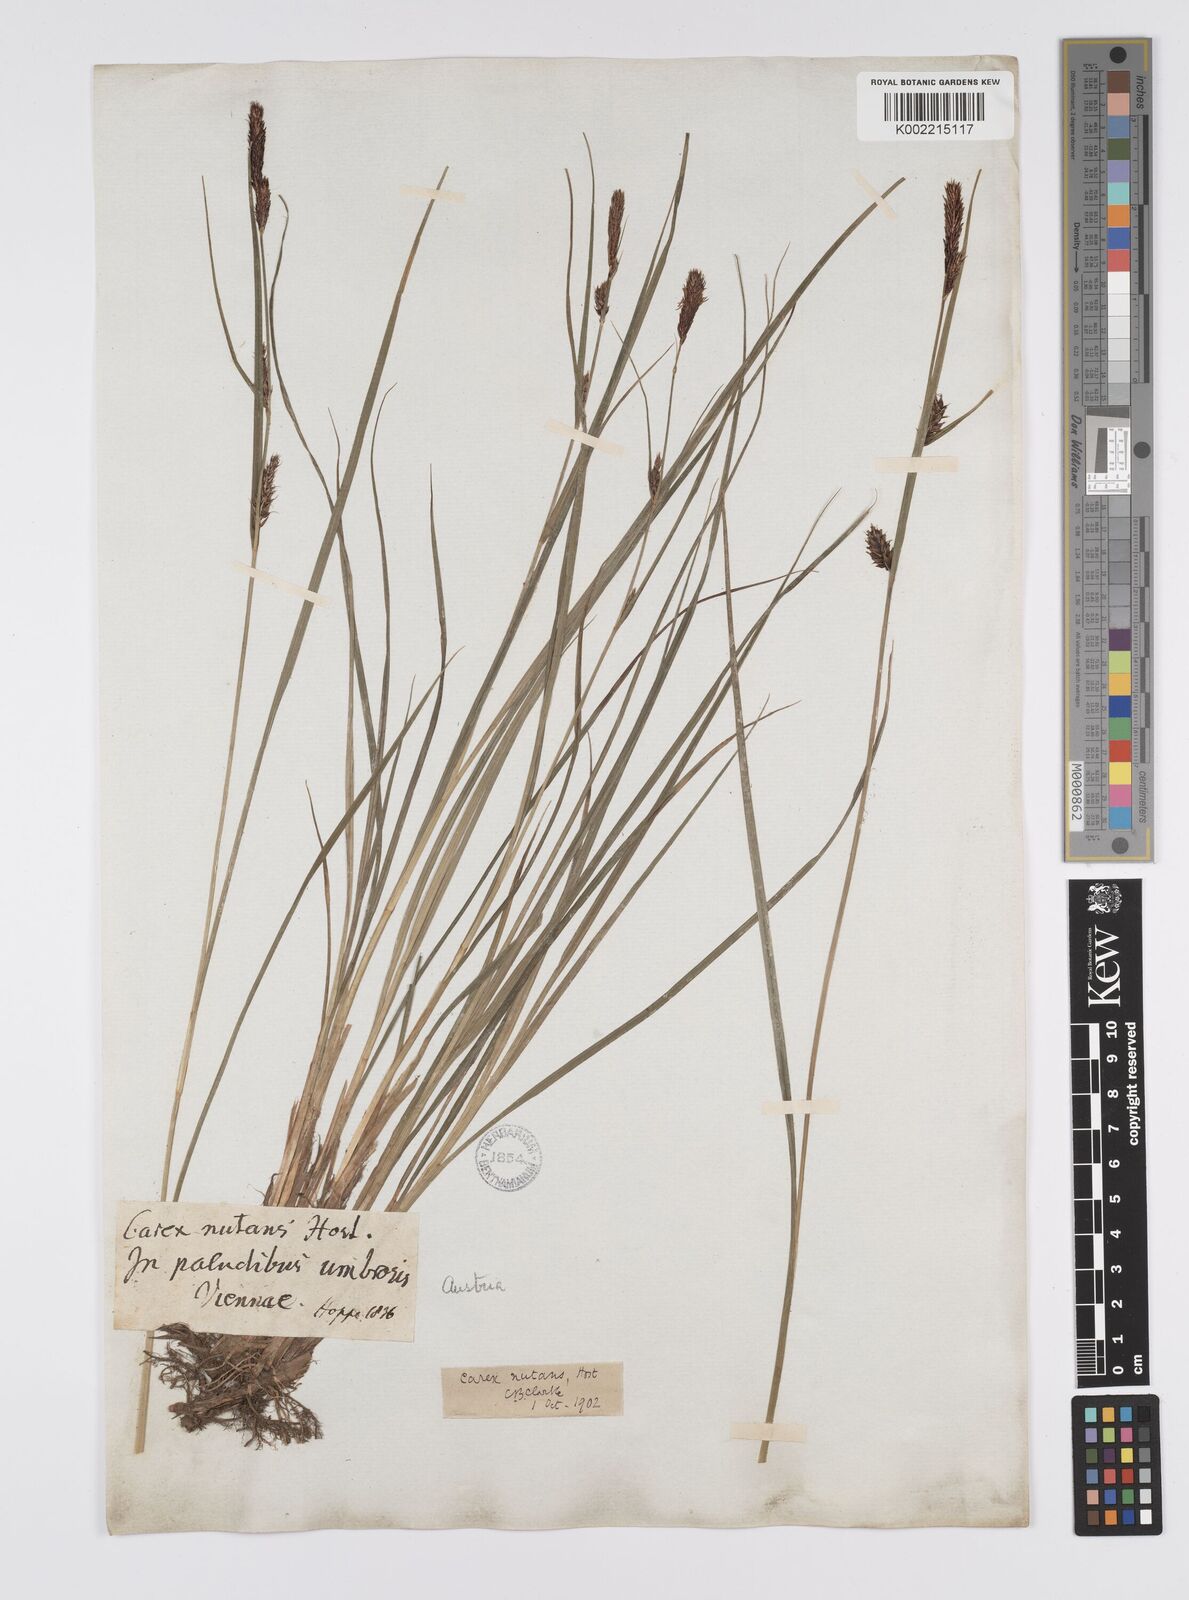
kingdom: Plantae
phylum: Tracheophyta
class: Liliopsida
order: Poales
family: Cyperaceae
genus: Carex
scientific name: Carex melanostachya
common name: Black-spiked sedge
